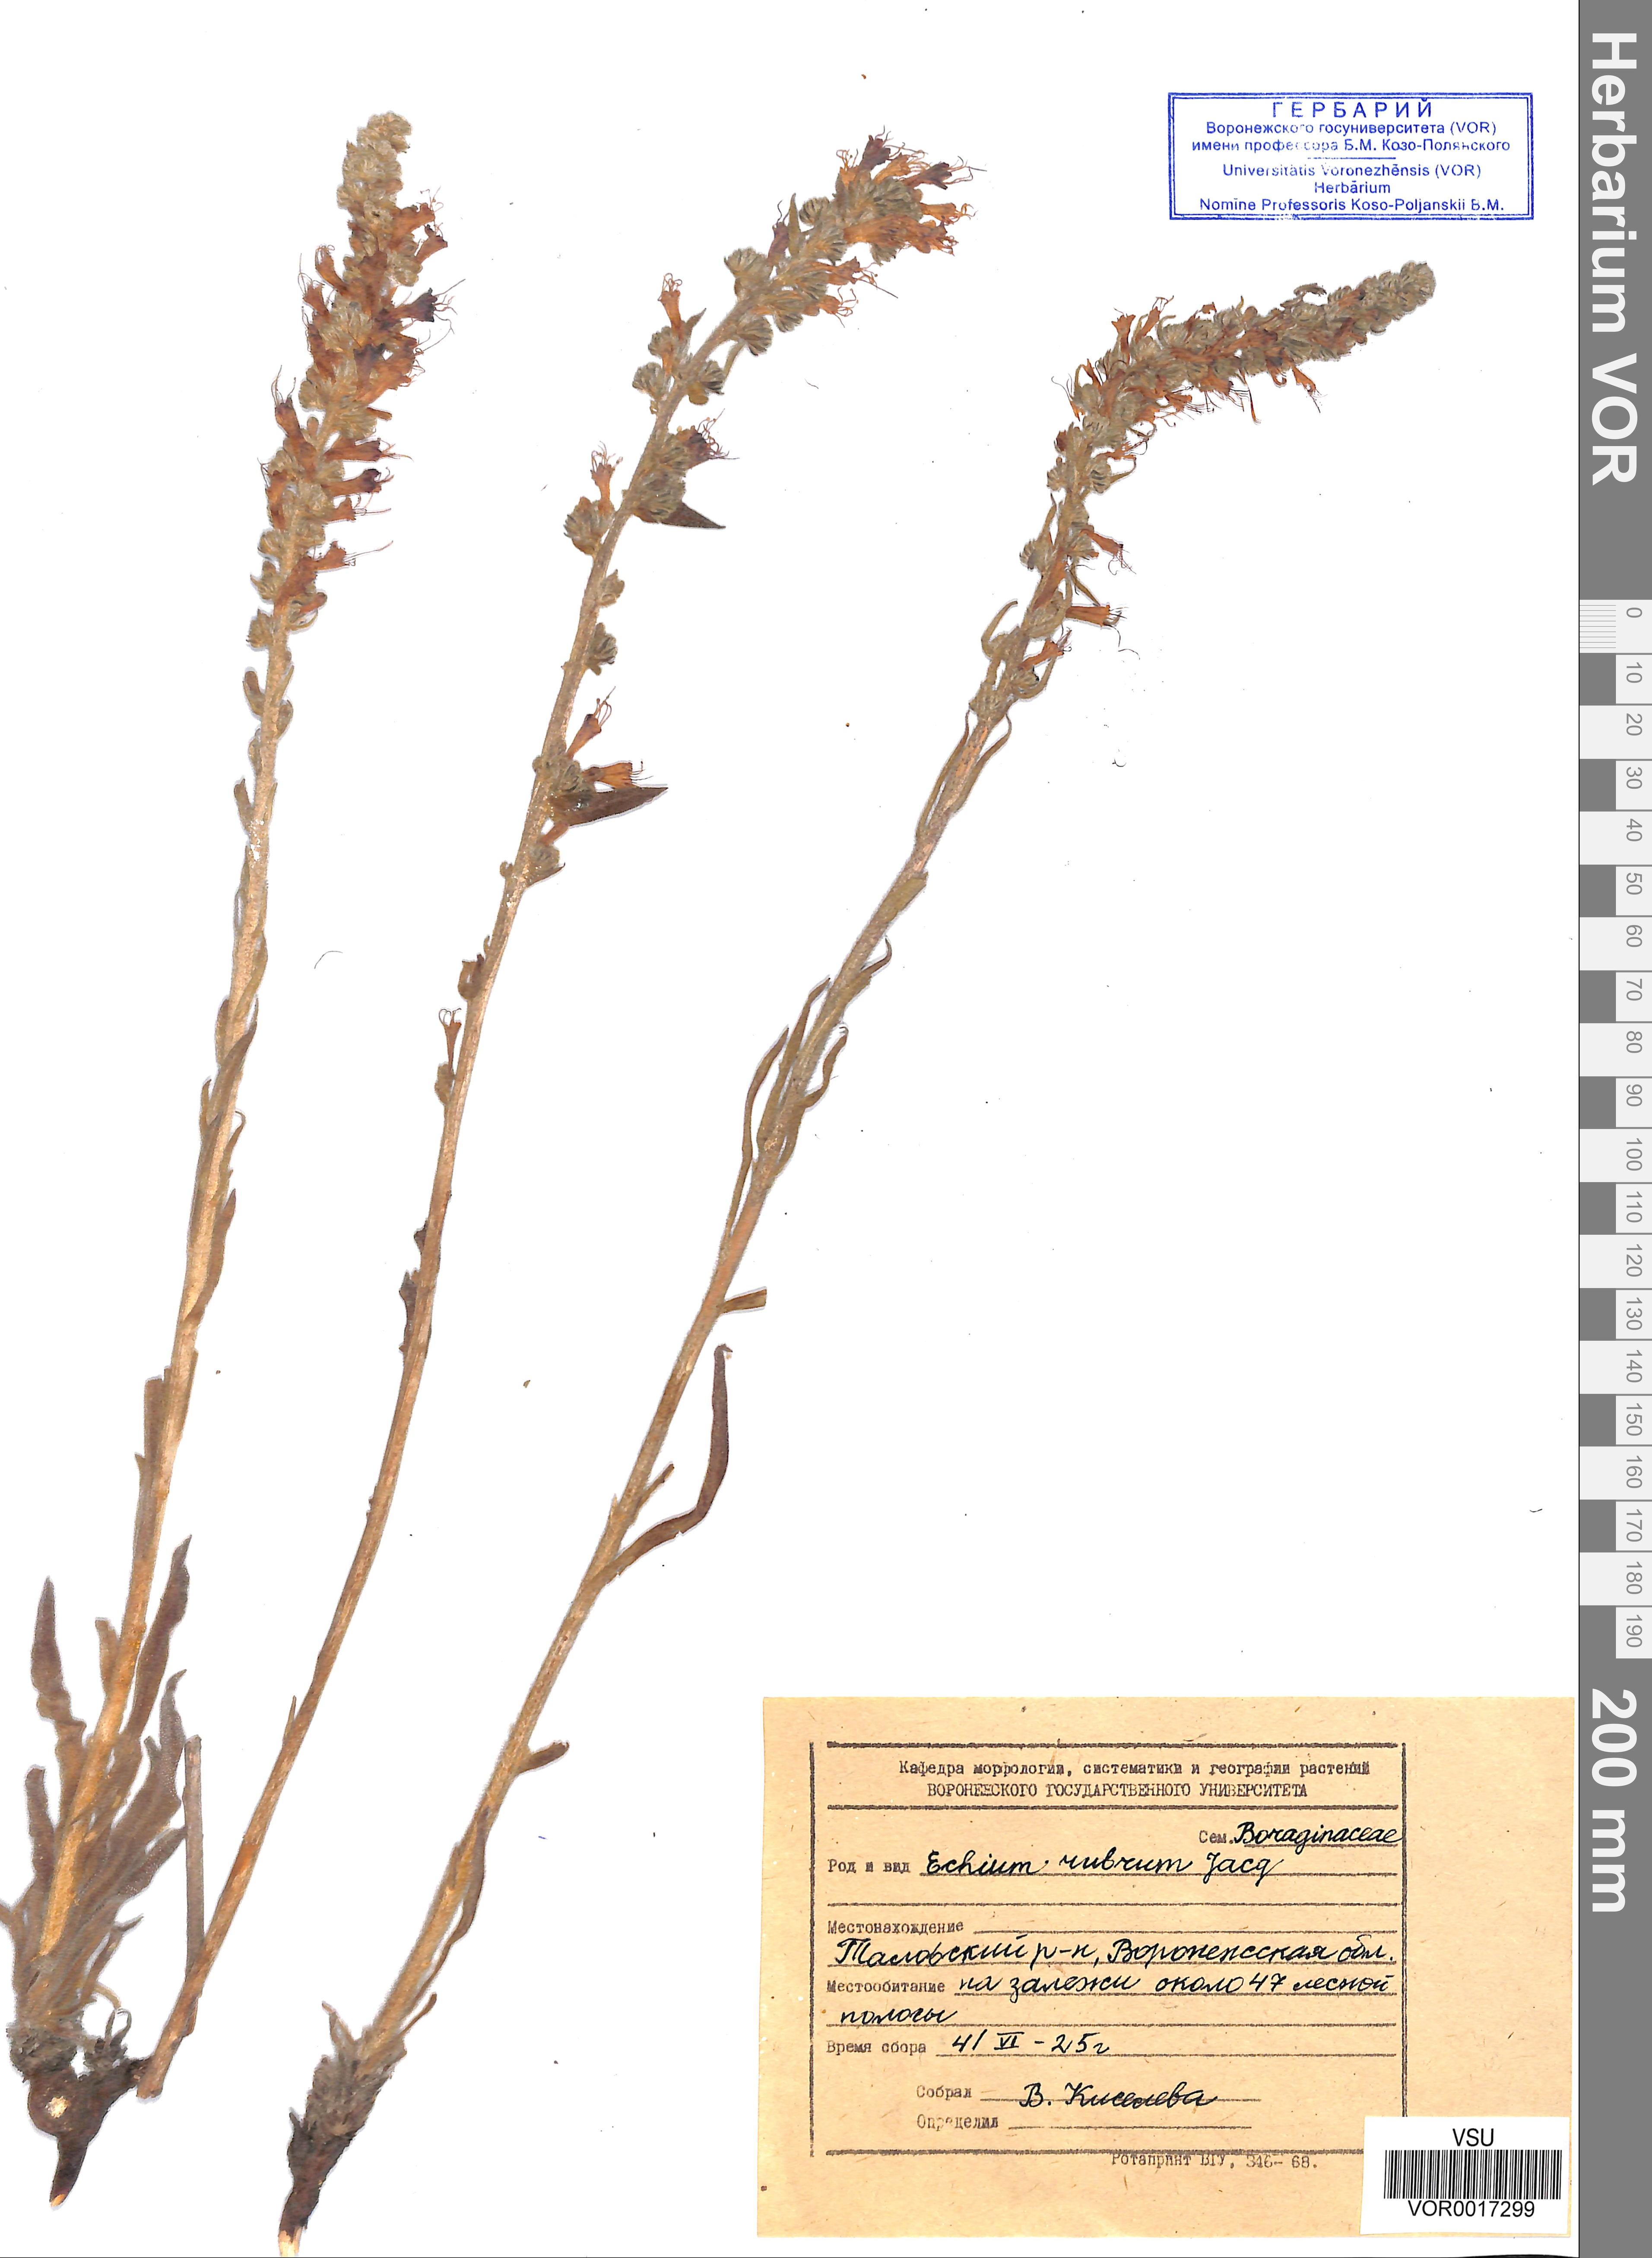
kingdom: Plantae
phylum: Tracheophyta
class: Magnoliopsida
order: Boraginales
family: Boraginaceae
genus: Pontechium
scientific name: Pontechium maculatum
